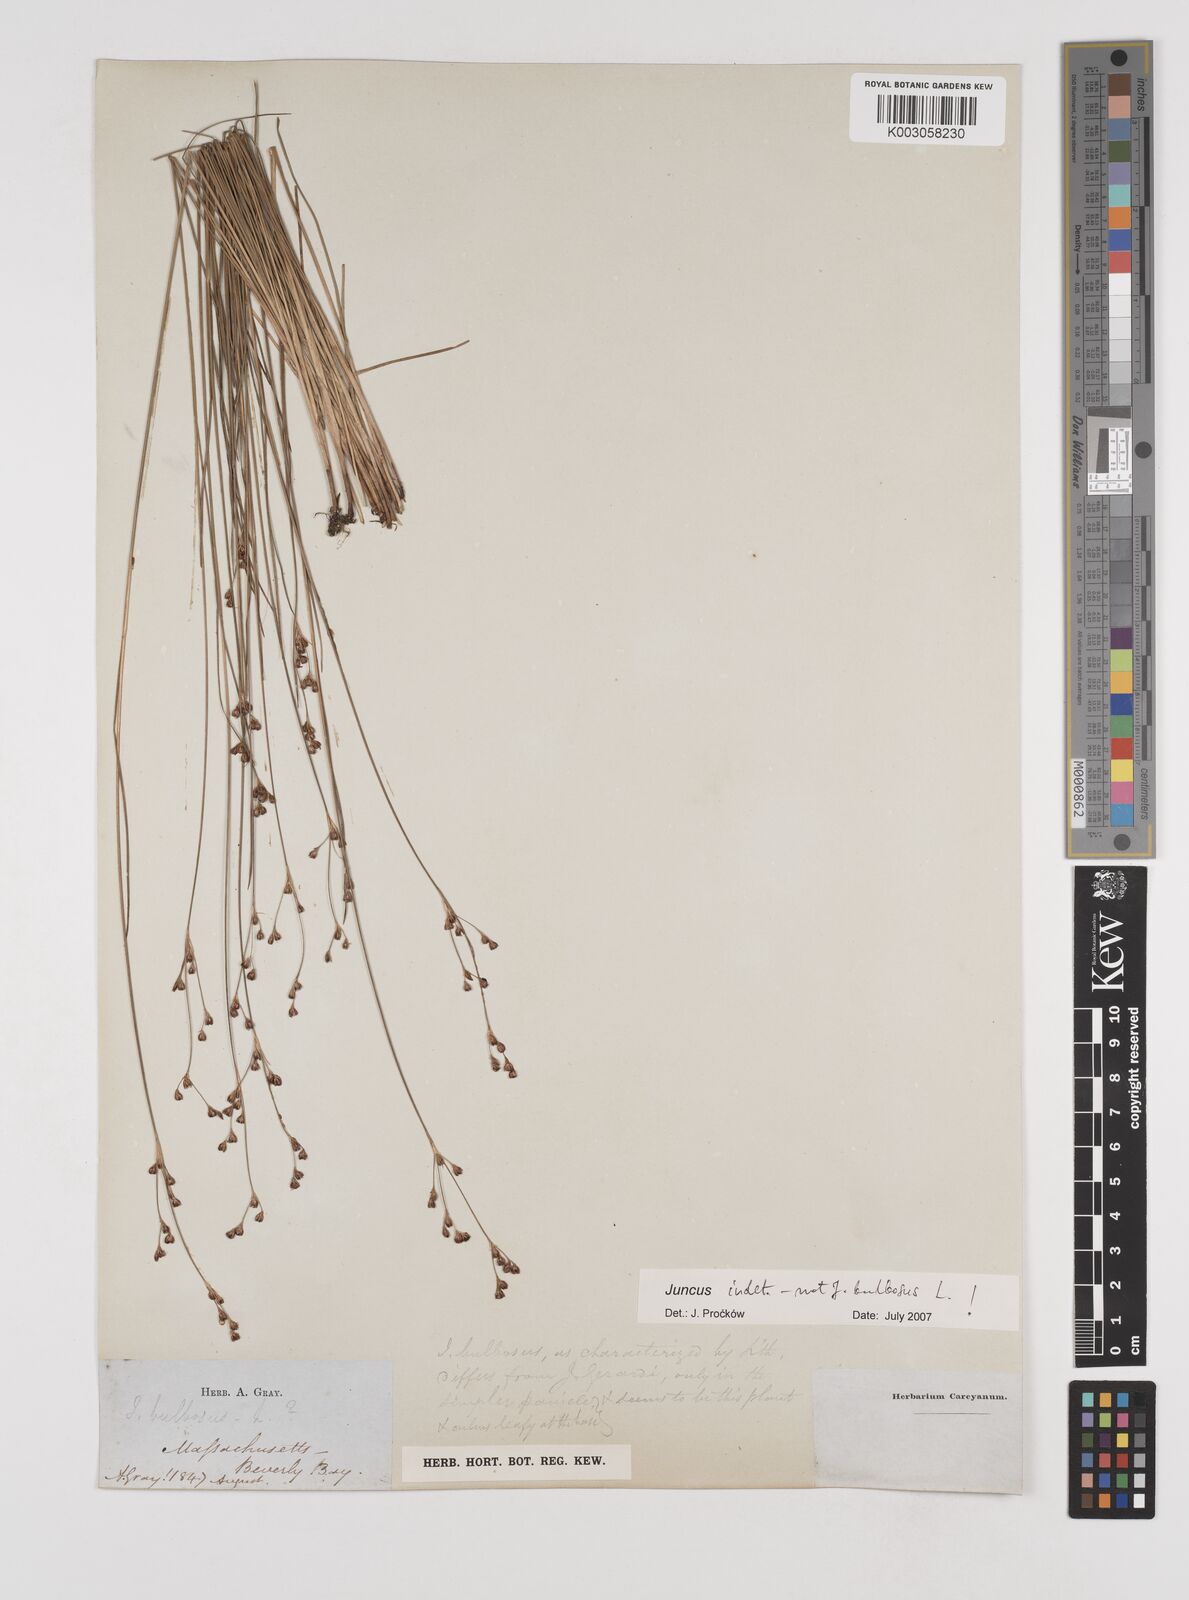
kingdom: Plantae
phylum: Tracheophyta
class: Liliopsida
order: Poales
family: Juncaceae
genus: Juncus
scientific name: Juncus
